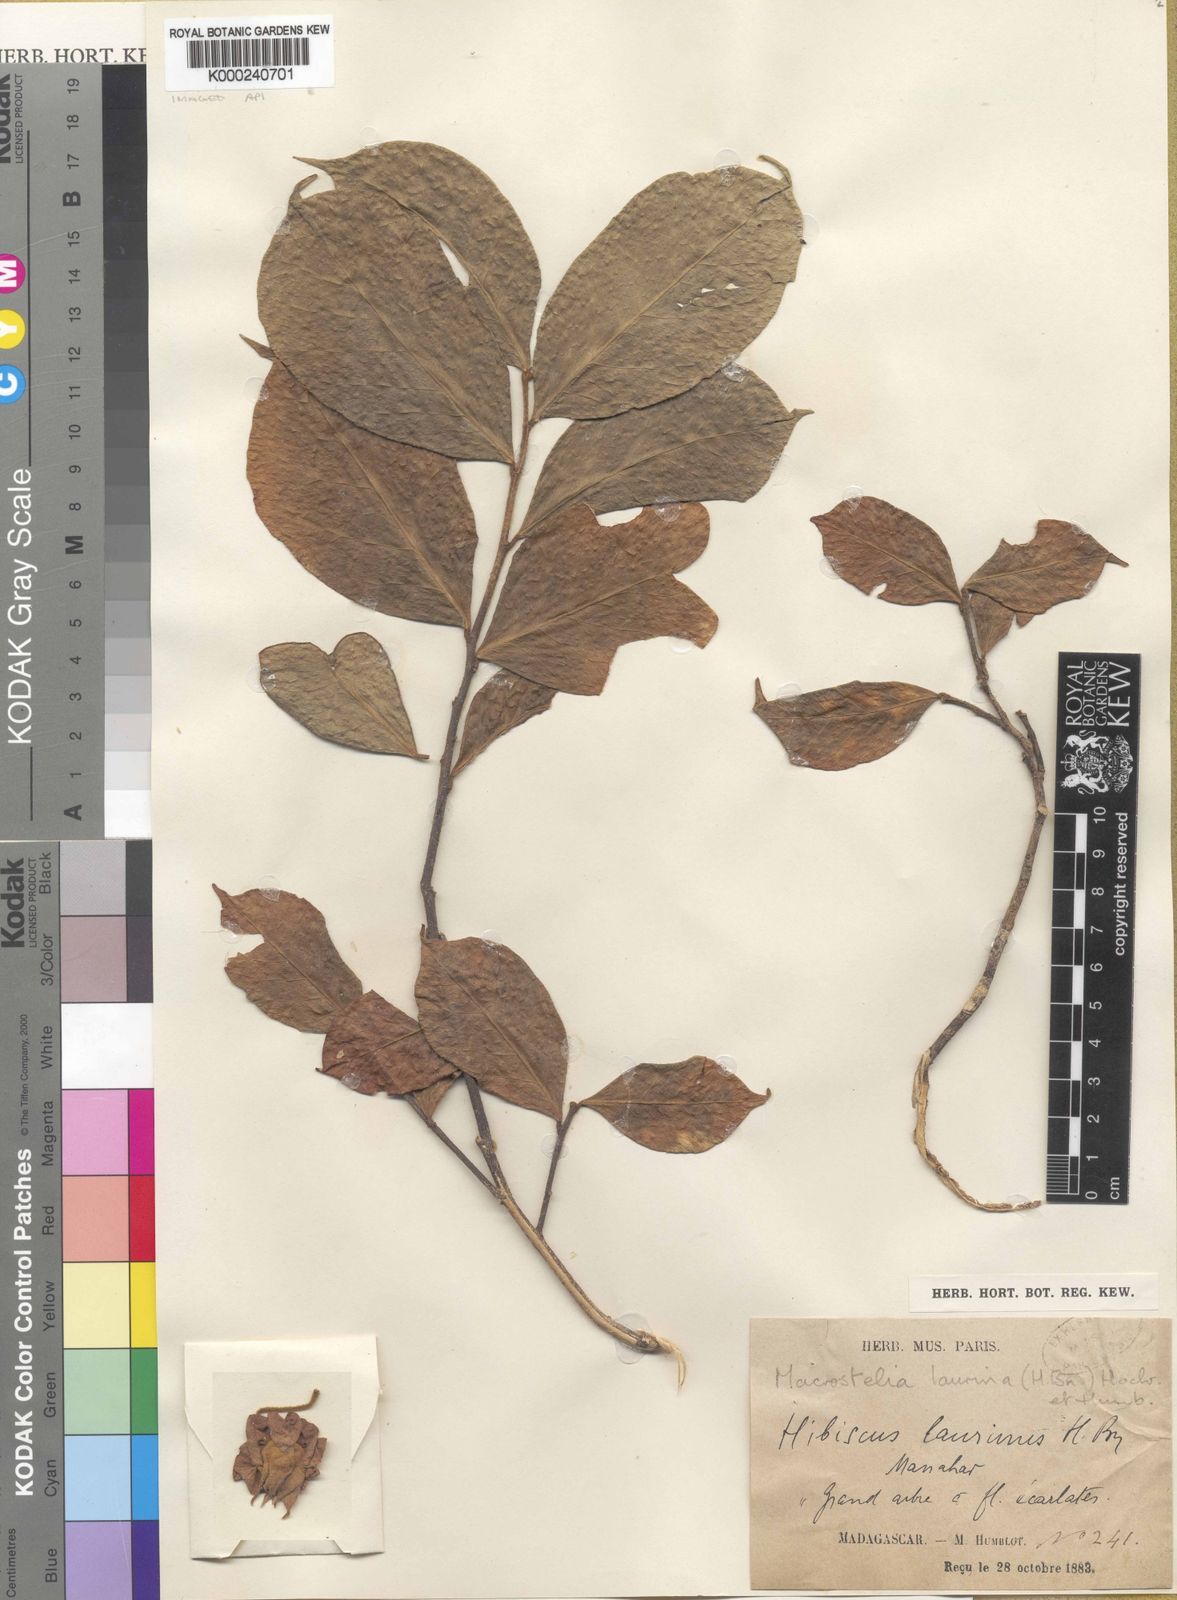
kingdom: Plantae
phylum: Tracheophyta
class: Magnoliopsida
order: Malvales
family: Malvaceae
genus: Humbertianthus
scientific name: Humbertianthus cardiostegius
